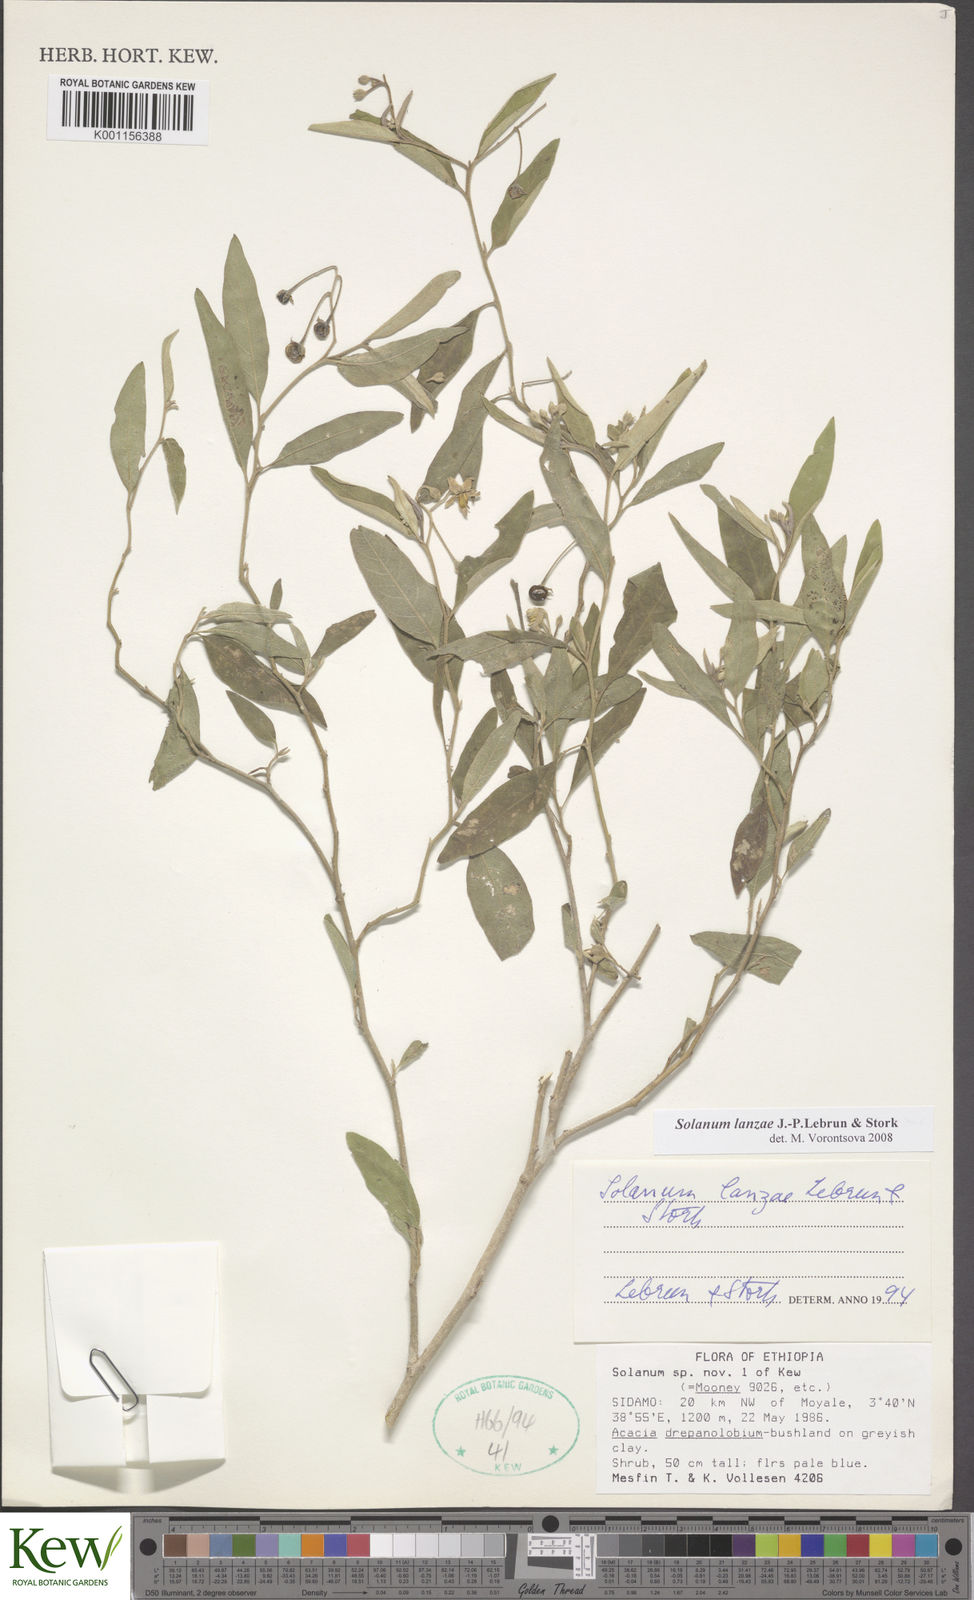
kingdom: Plantae
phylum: Tracheophyta
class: Magnoliopsida
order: Solanales
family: Solanaceae
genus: Solanum
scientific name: Solanum lanzae
